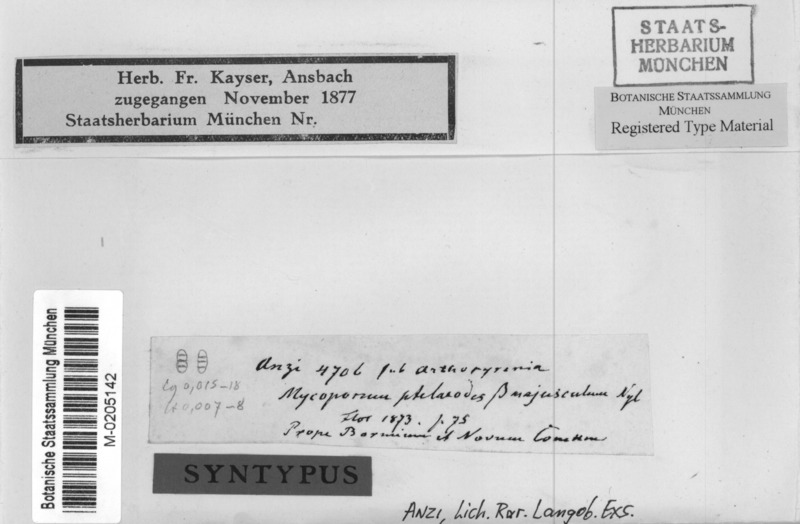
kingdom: Fungi
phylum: Ascomycota
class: Dothideomycetes
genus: Cyrtidula
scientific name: Cyrtidula hippocastani
